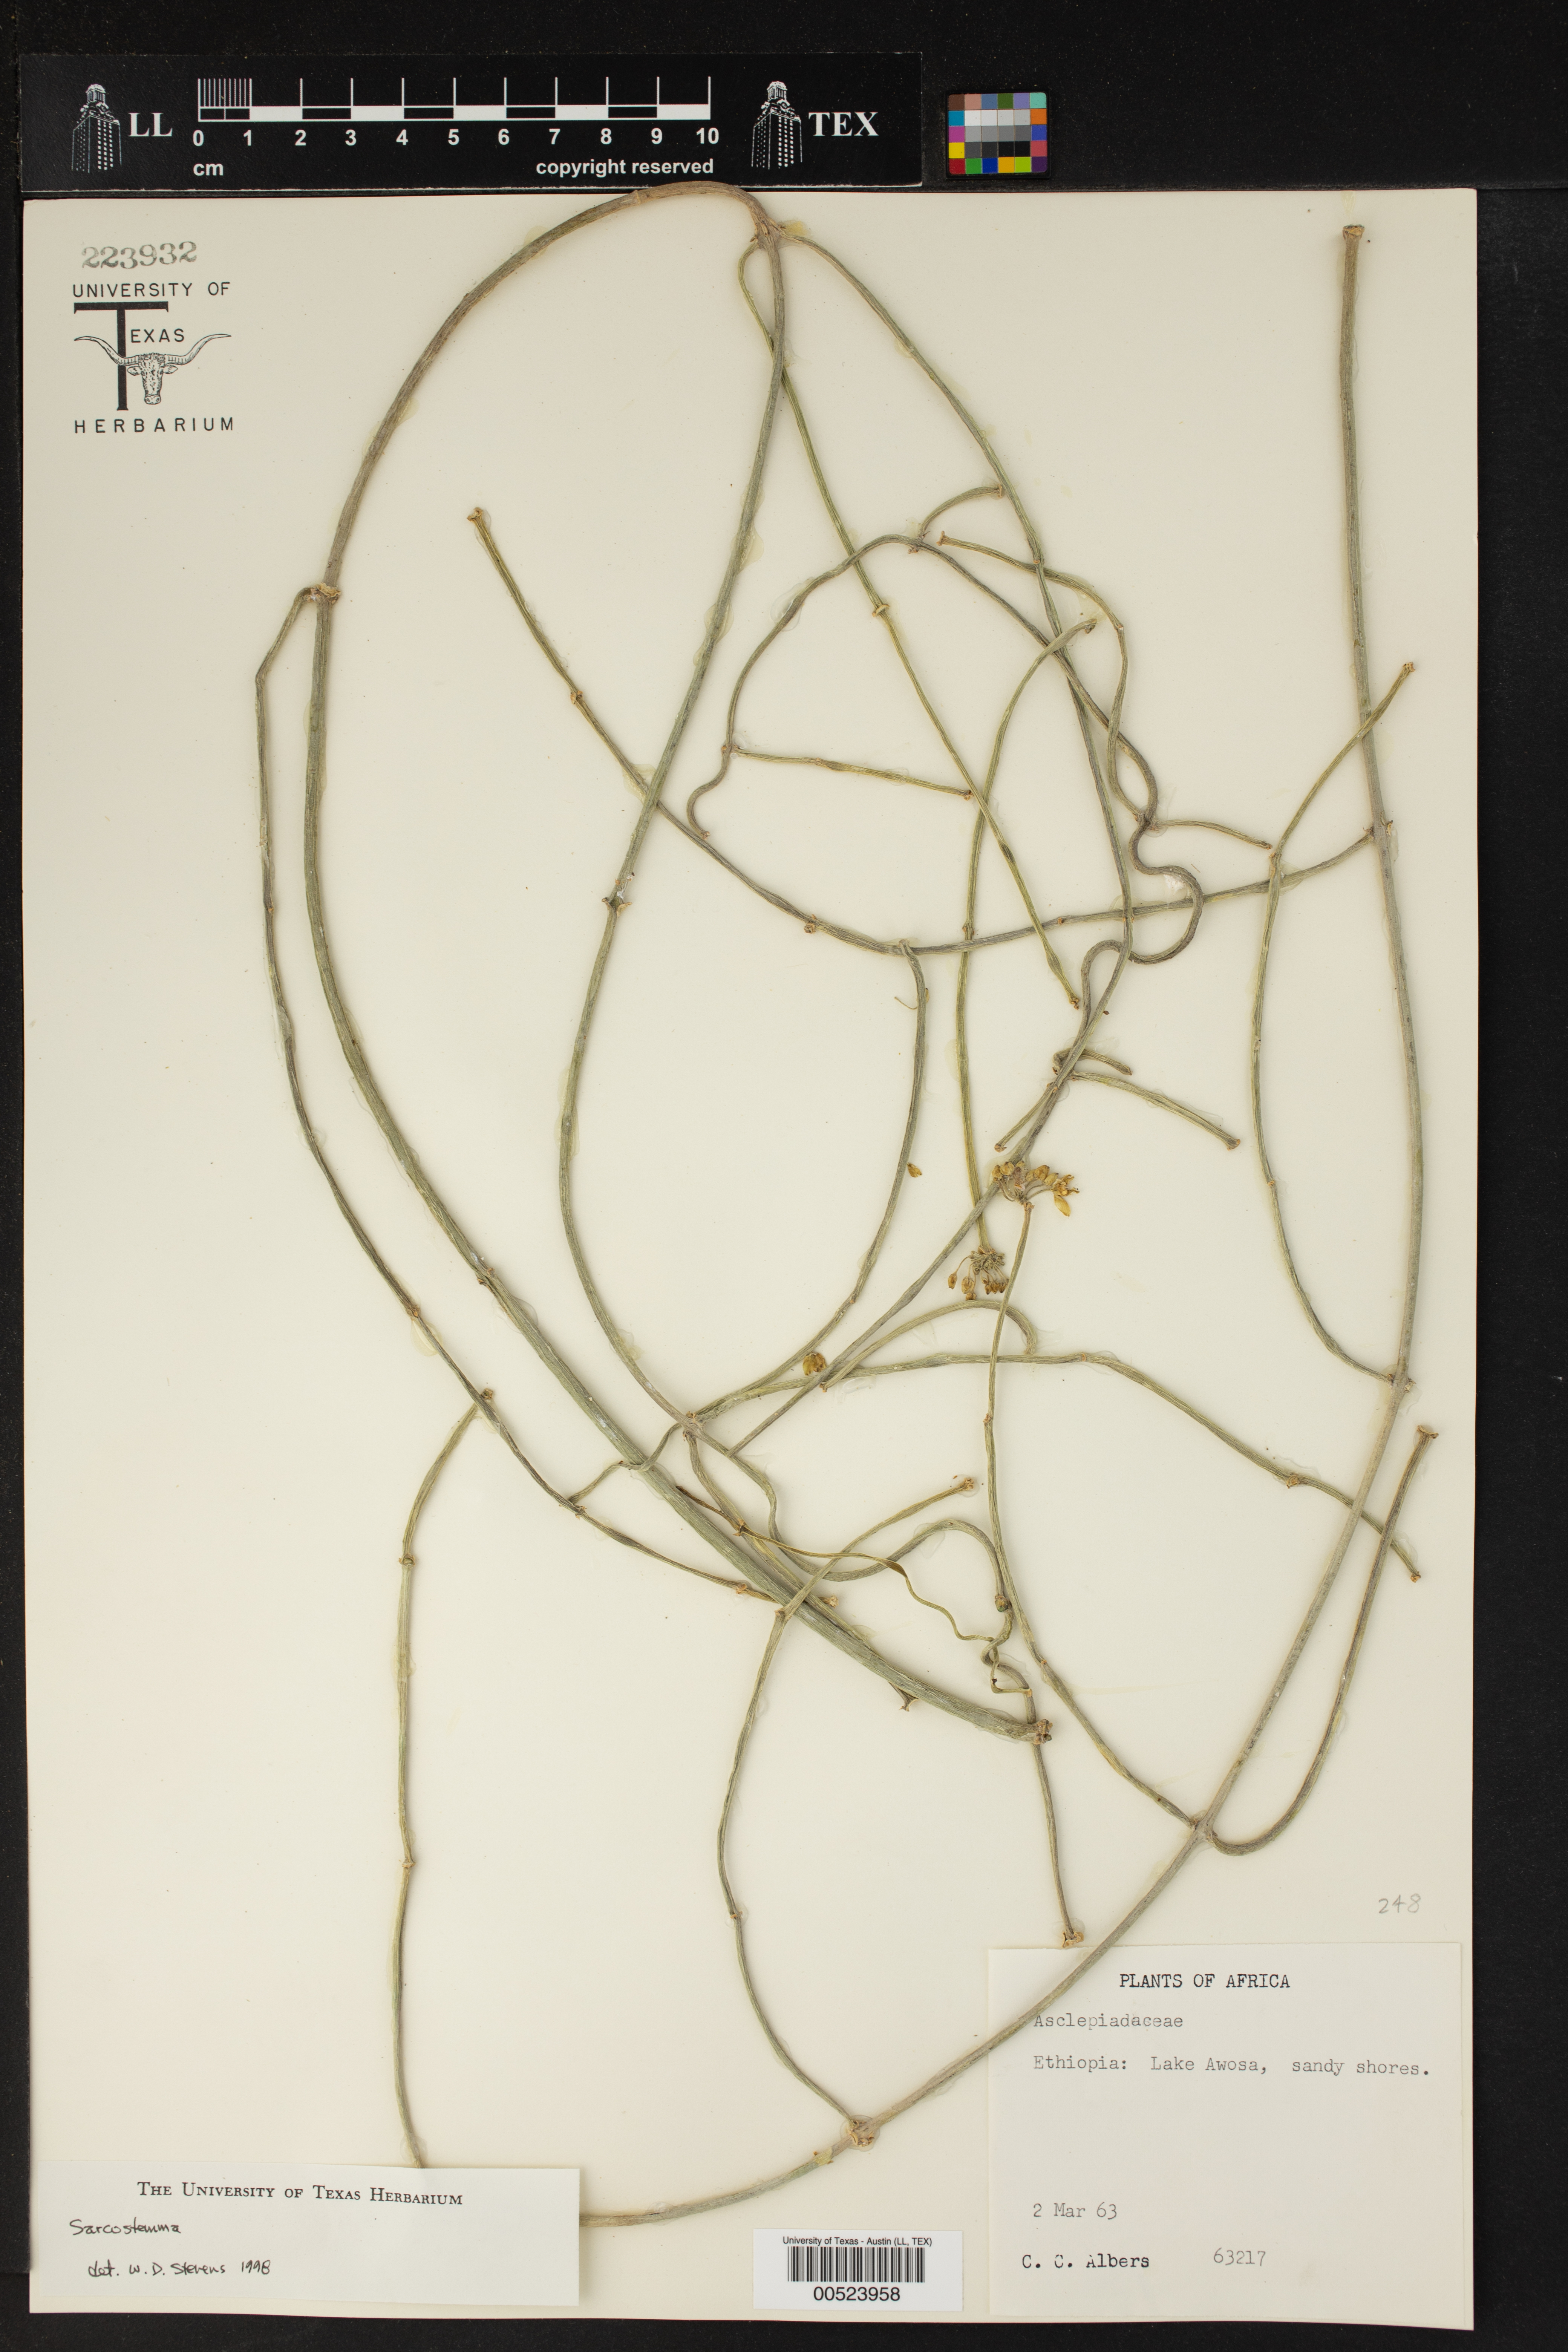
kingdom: Plantae
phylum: Tracheophyta
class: Magnoliopsida
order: Gentianales
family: Apocynaceae
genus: Cynanchum
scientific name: Cynanchum
